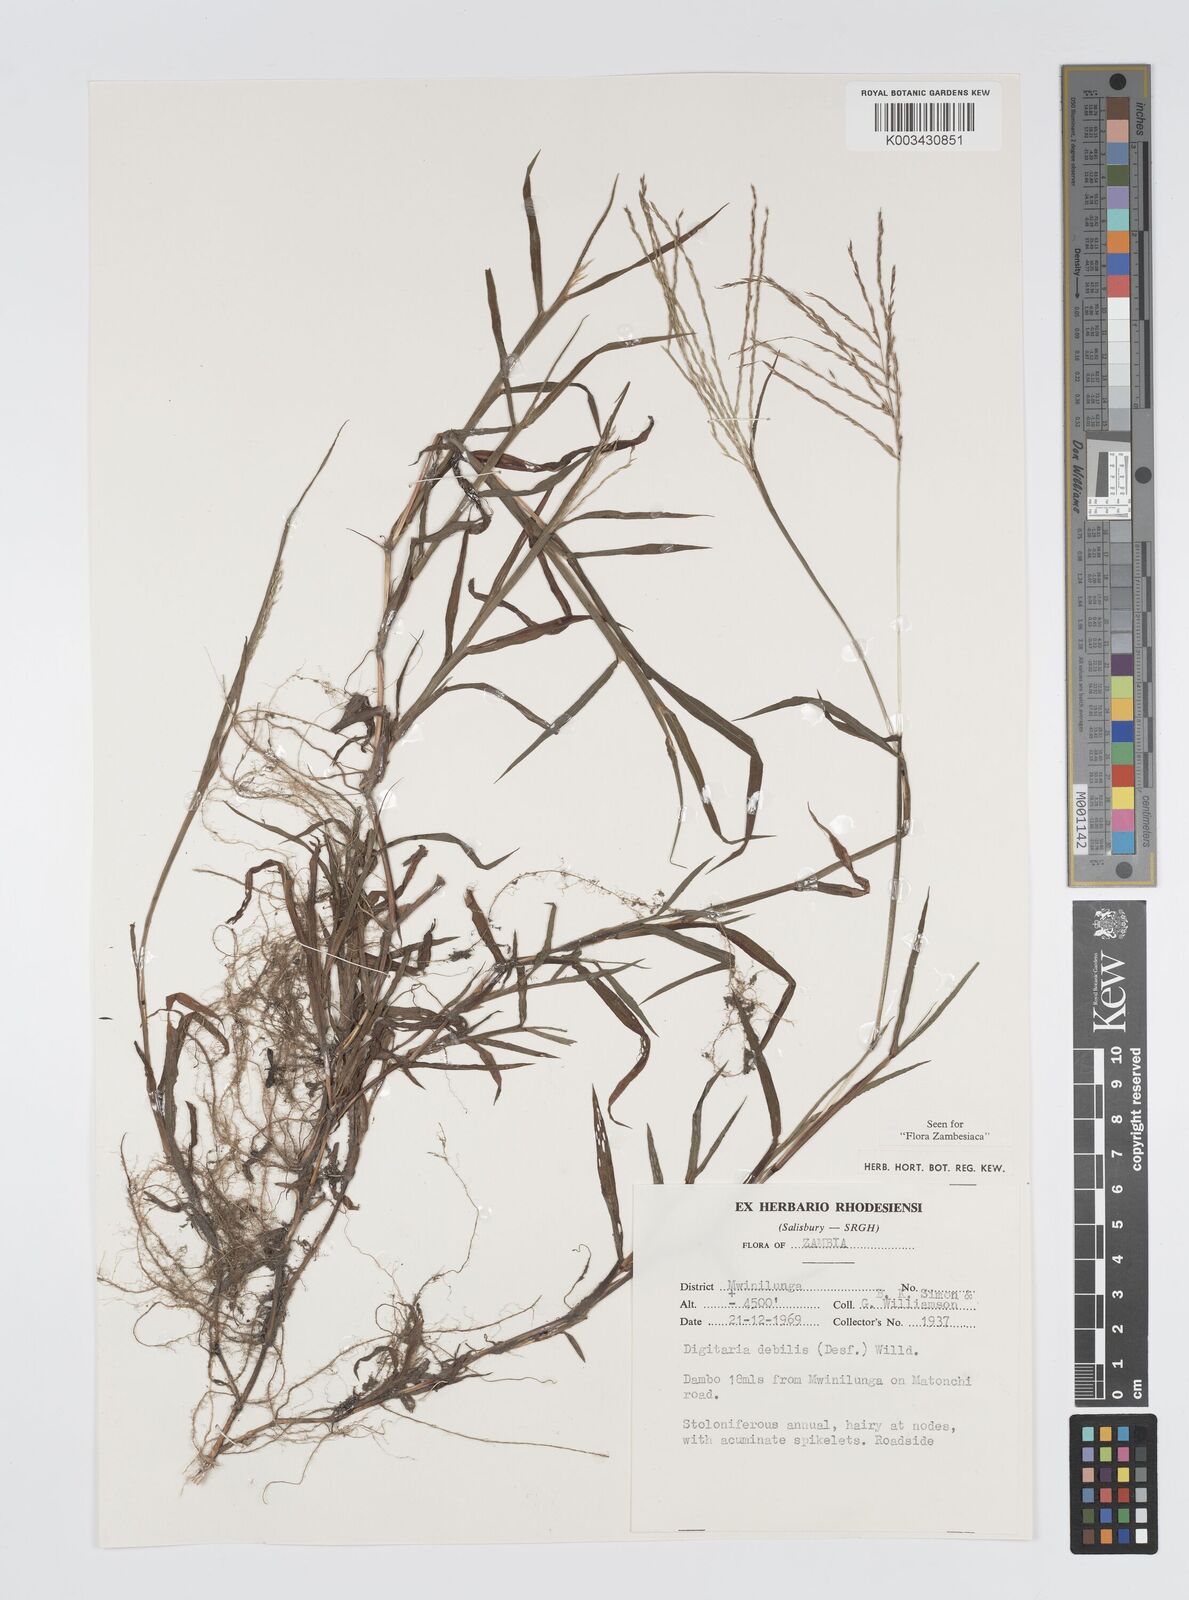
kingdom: Plantae
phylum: Tracheophyta
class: Liliopsida
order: Poales
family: Poaceae
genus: Digitaria
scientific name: Digitaria debilis
